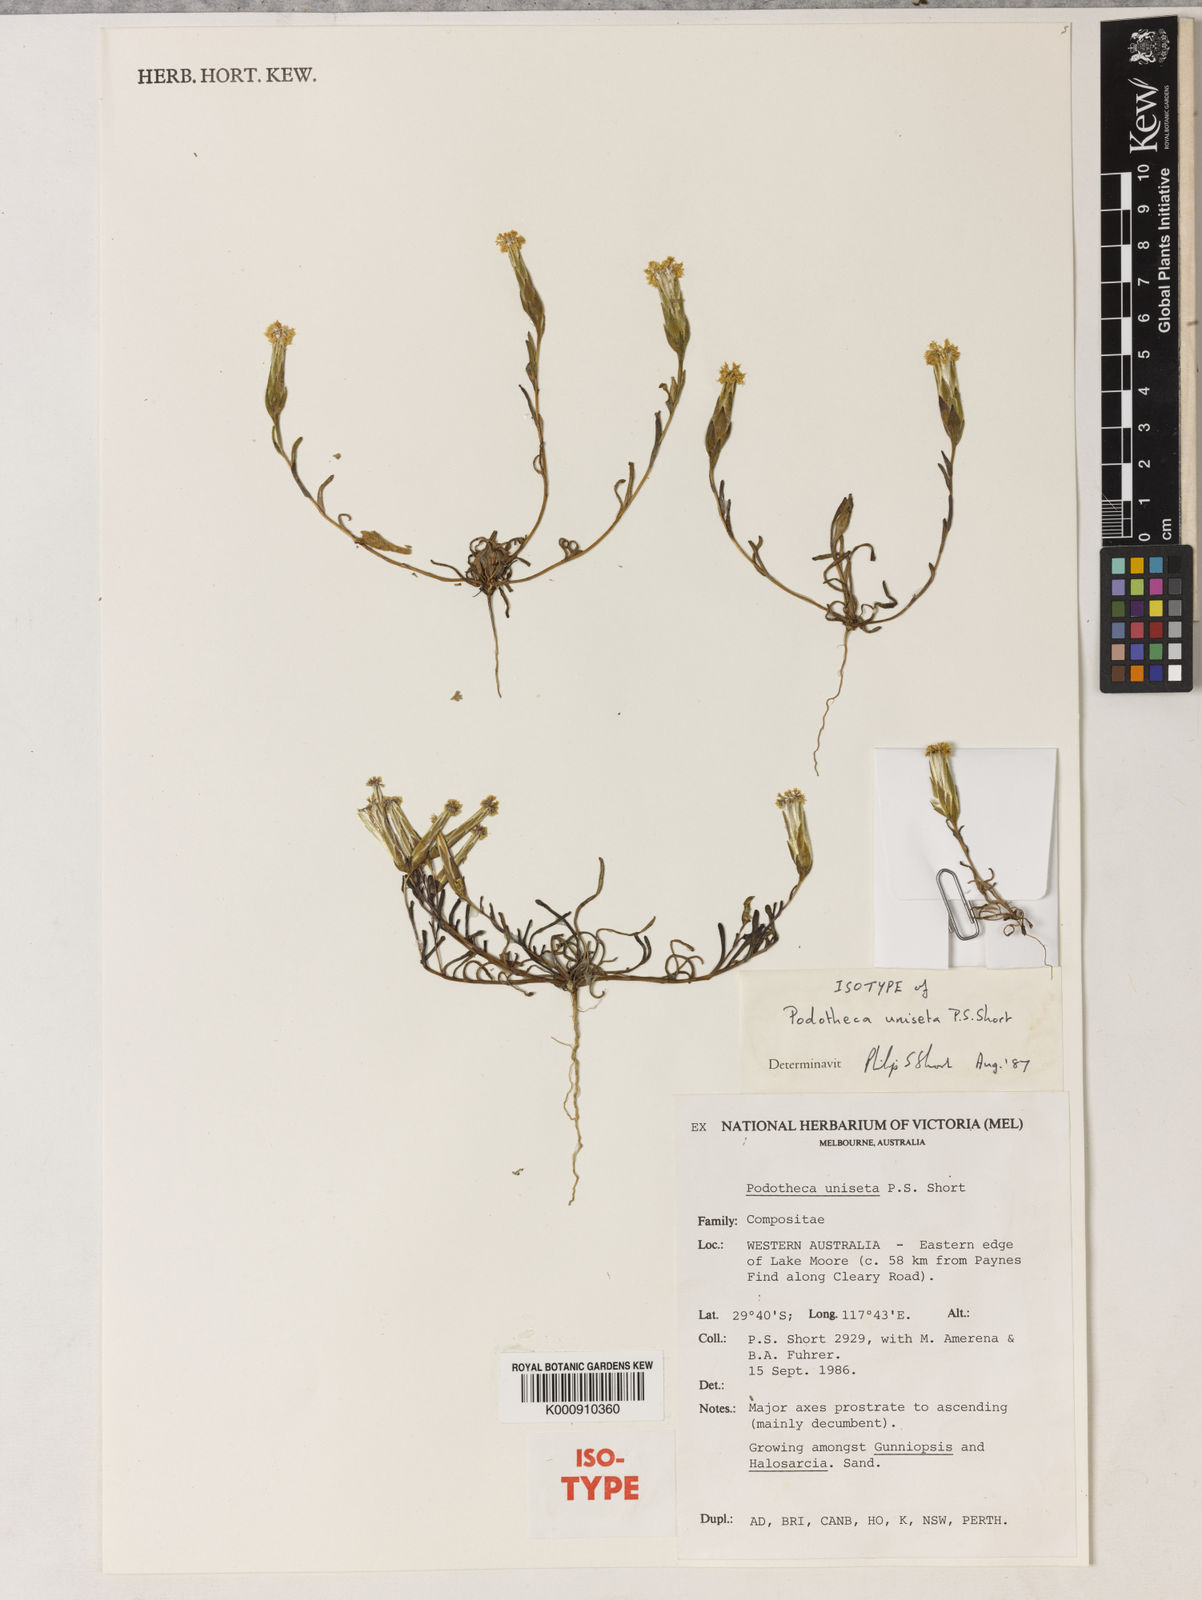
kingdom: Plantae
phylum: Tracheophyta
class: Magnoliopsida
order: Asterales
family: Asteraceae
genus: Podotheca
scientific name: Podotheca uniseta
